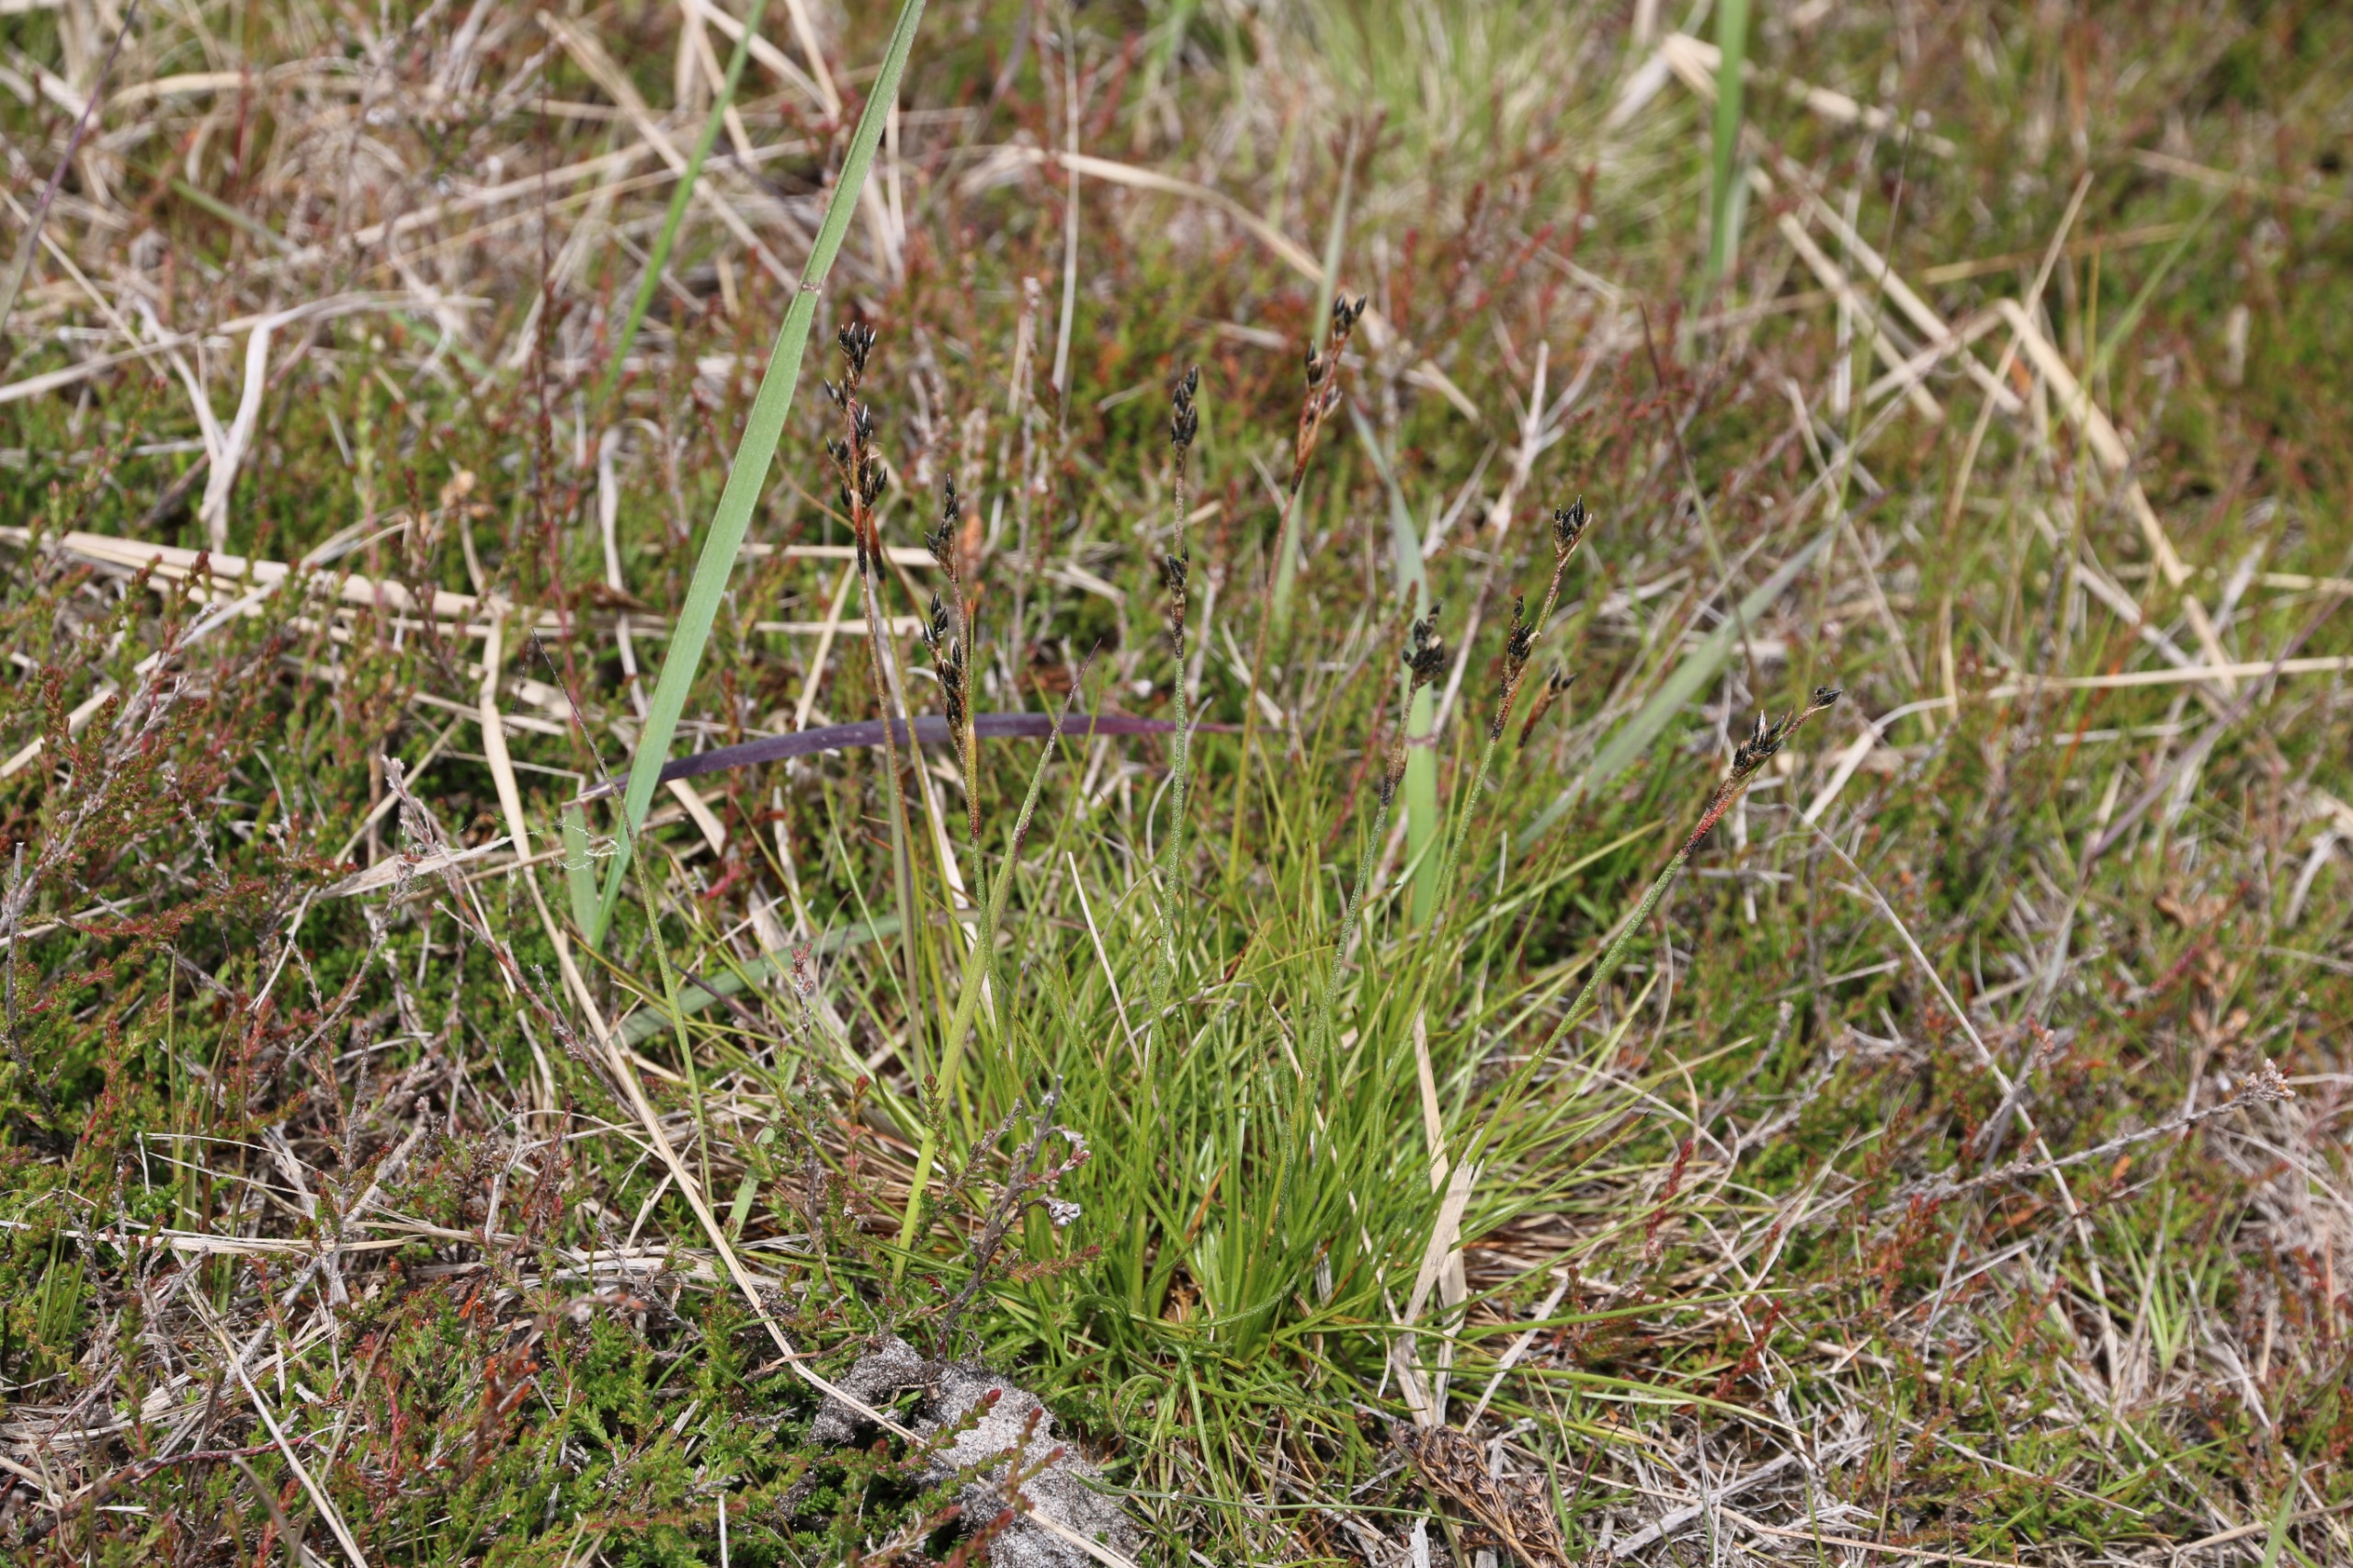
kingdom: Plantae
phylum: Tracheophyta
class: Liliopsida
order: Poales
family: Juncaceae
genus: Juncus
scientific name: Juncus squarrosus
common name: Børste-siv
